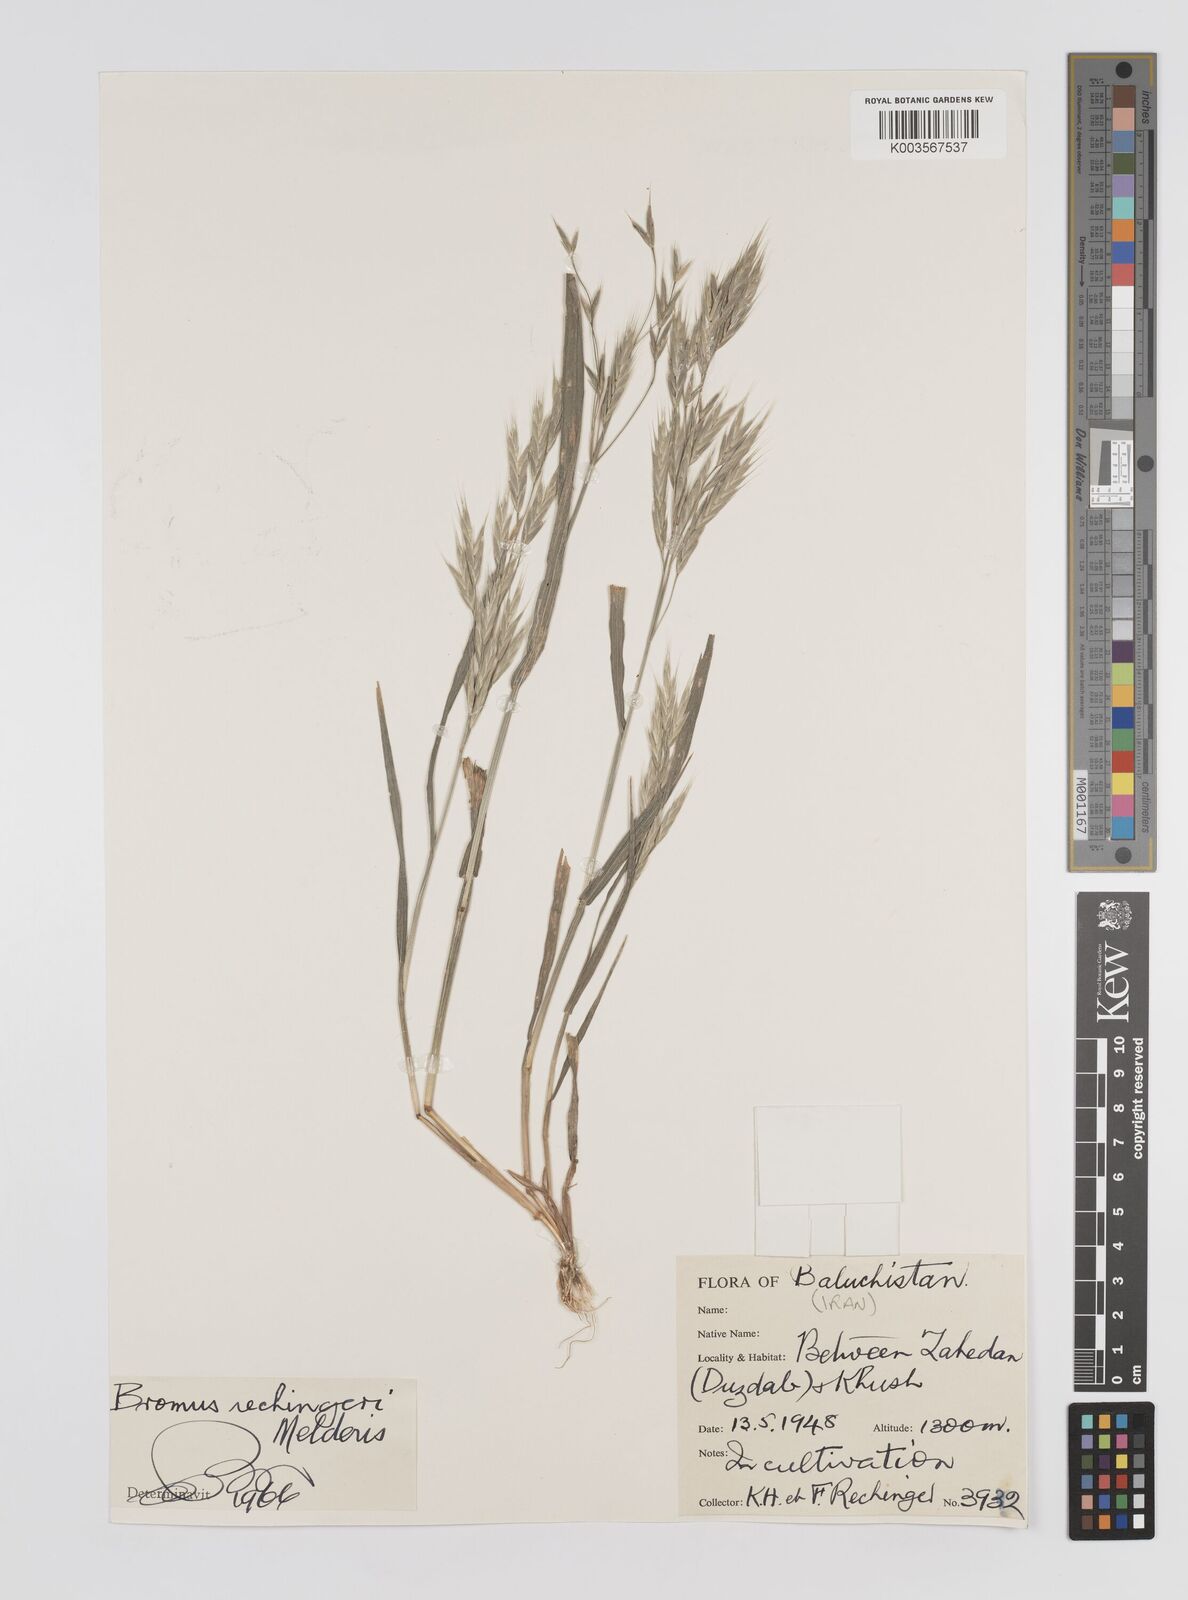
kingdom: Plantae
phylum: Tracheophyta
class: Liliopsida
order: Poales
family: Poaceae
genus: Bromus
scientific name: Bromus pectinatus
